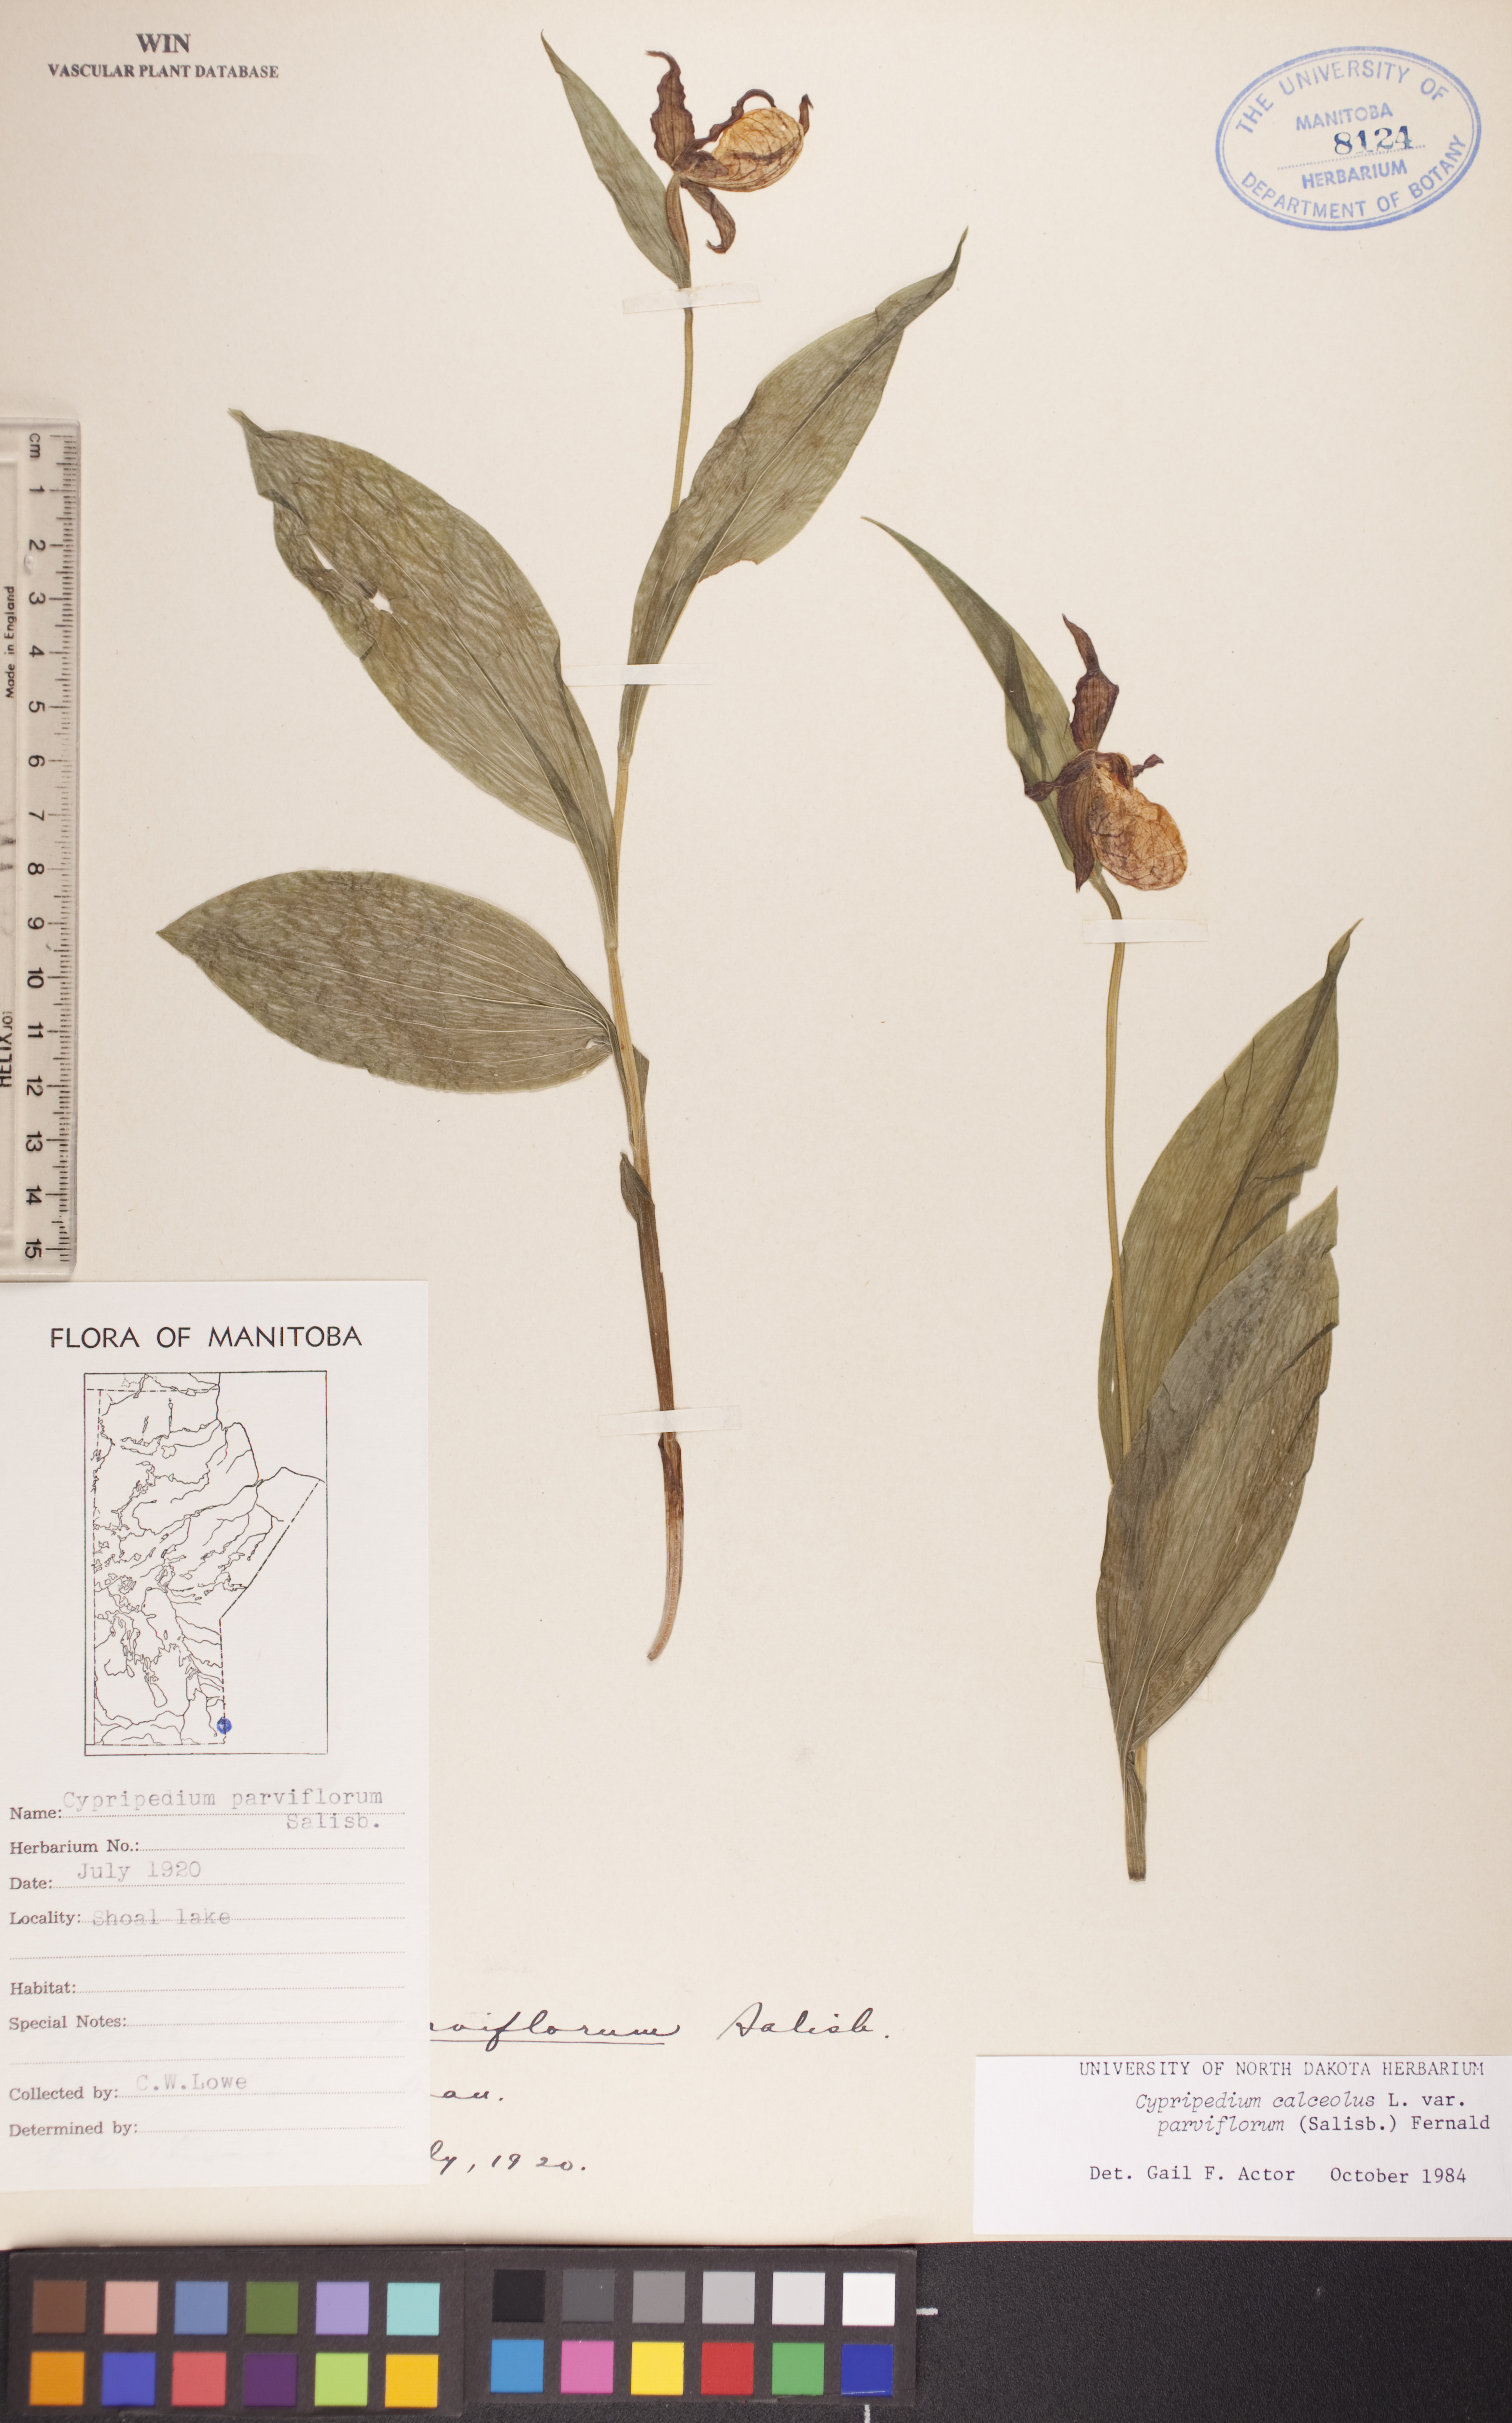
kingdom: Plantae
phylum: Tracheophyta
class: Liliopsida
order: Asparagales
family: Orchidaceae
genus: Cypripedium
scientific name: Cypripedium parviflorum
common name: American yellow lady's-slipper
